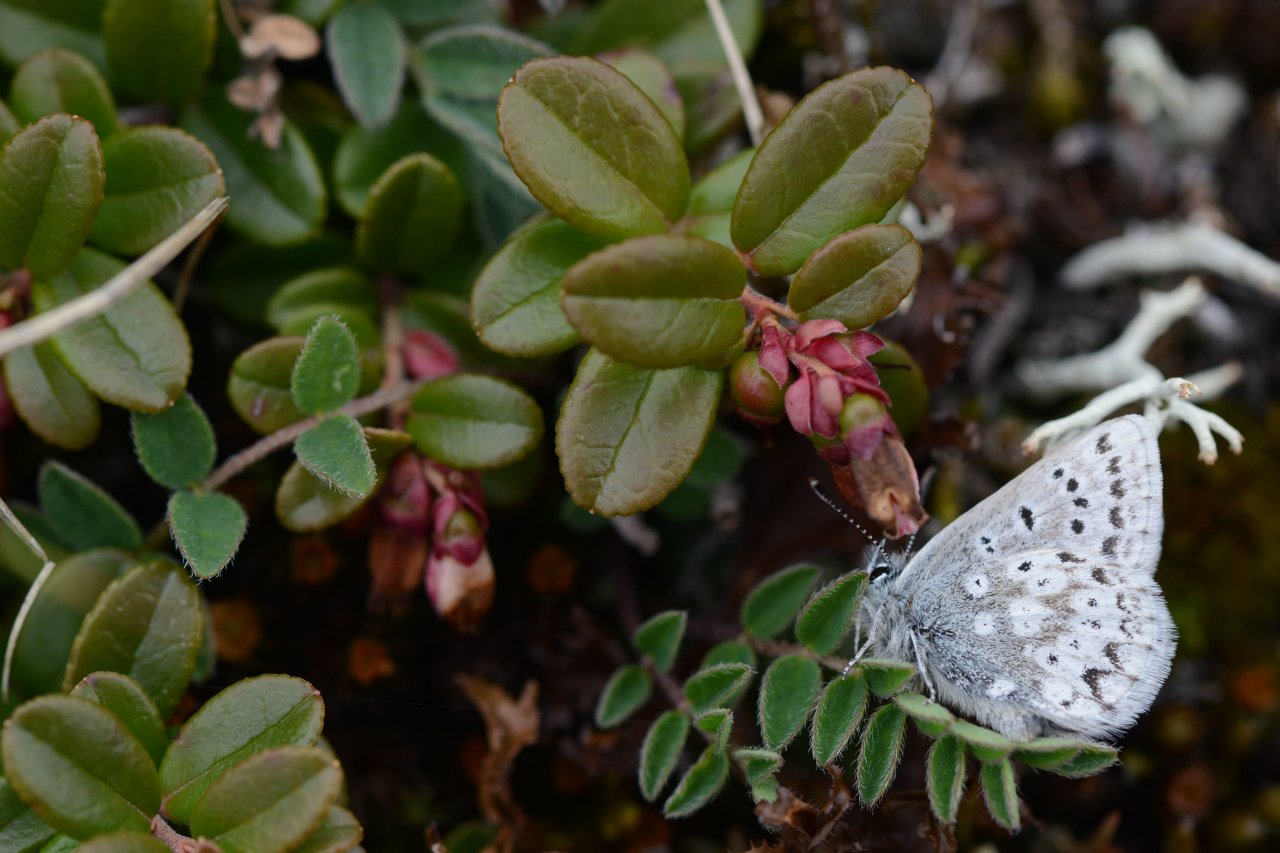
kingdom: Animalia
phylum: Arthropoda
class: Insecta
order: Lepidoptera
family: Lycaenidae
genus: Agriades
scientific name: Agriades glandon
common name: Arctic Blue
